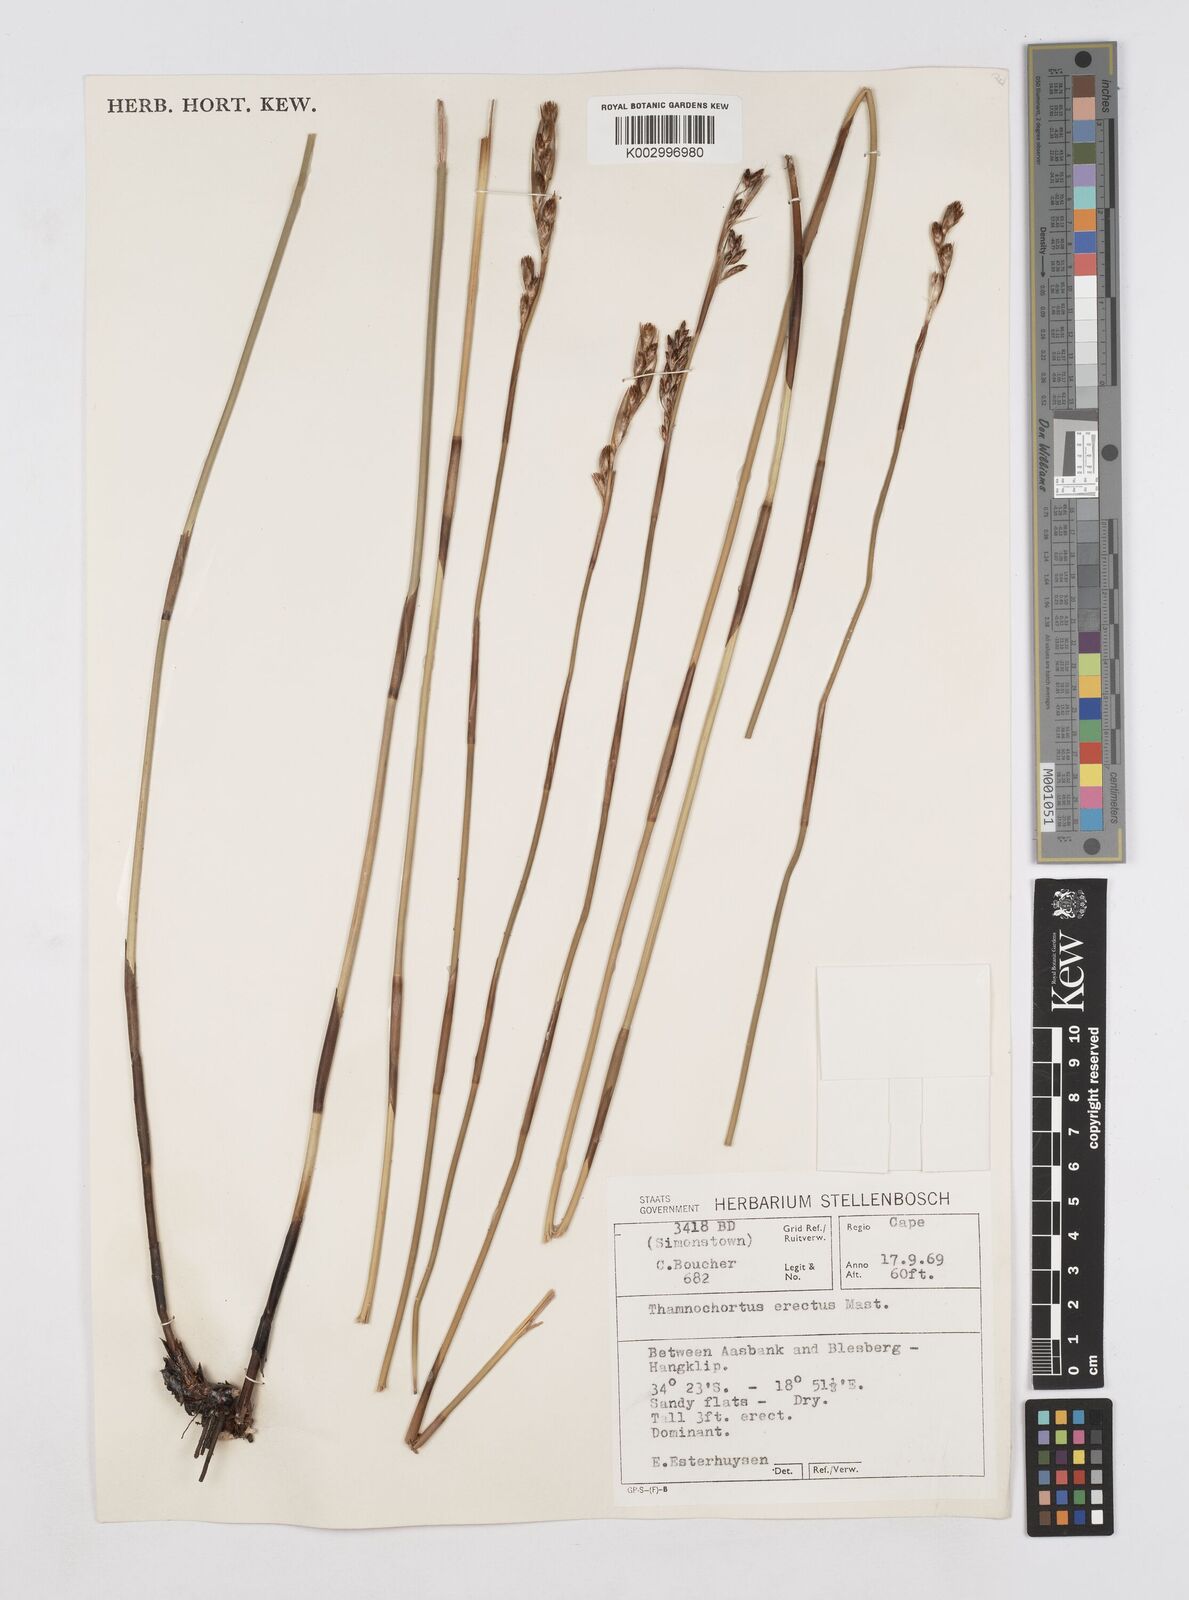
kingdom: Plantae
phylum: Tracheophyta
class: Liliopsida
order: Poales
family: Restionaceae
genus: Thamnochortus
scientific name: Thamnochortus erectus
